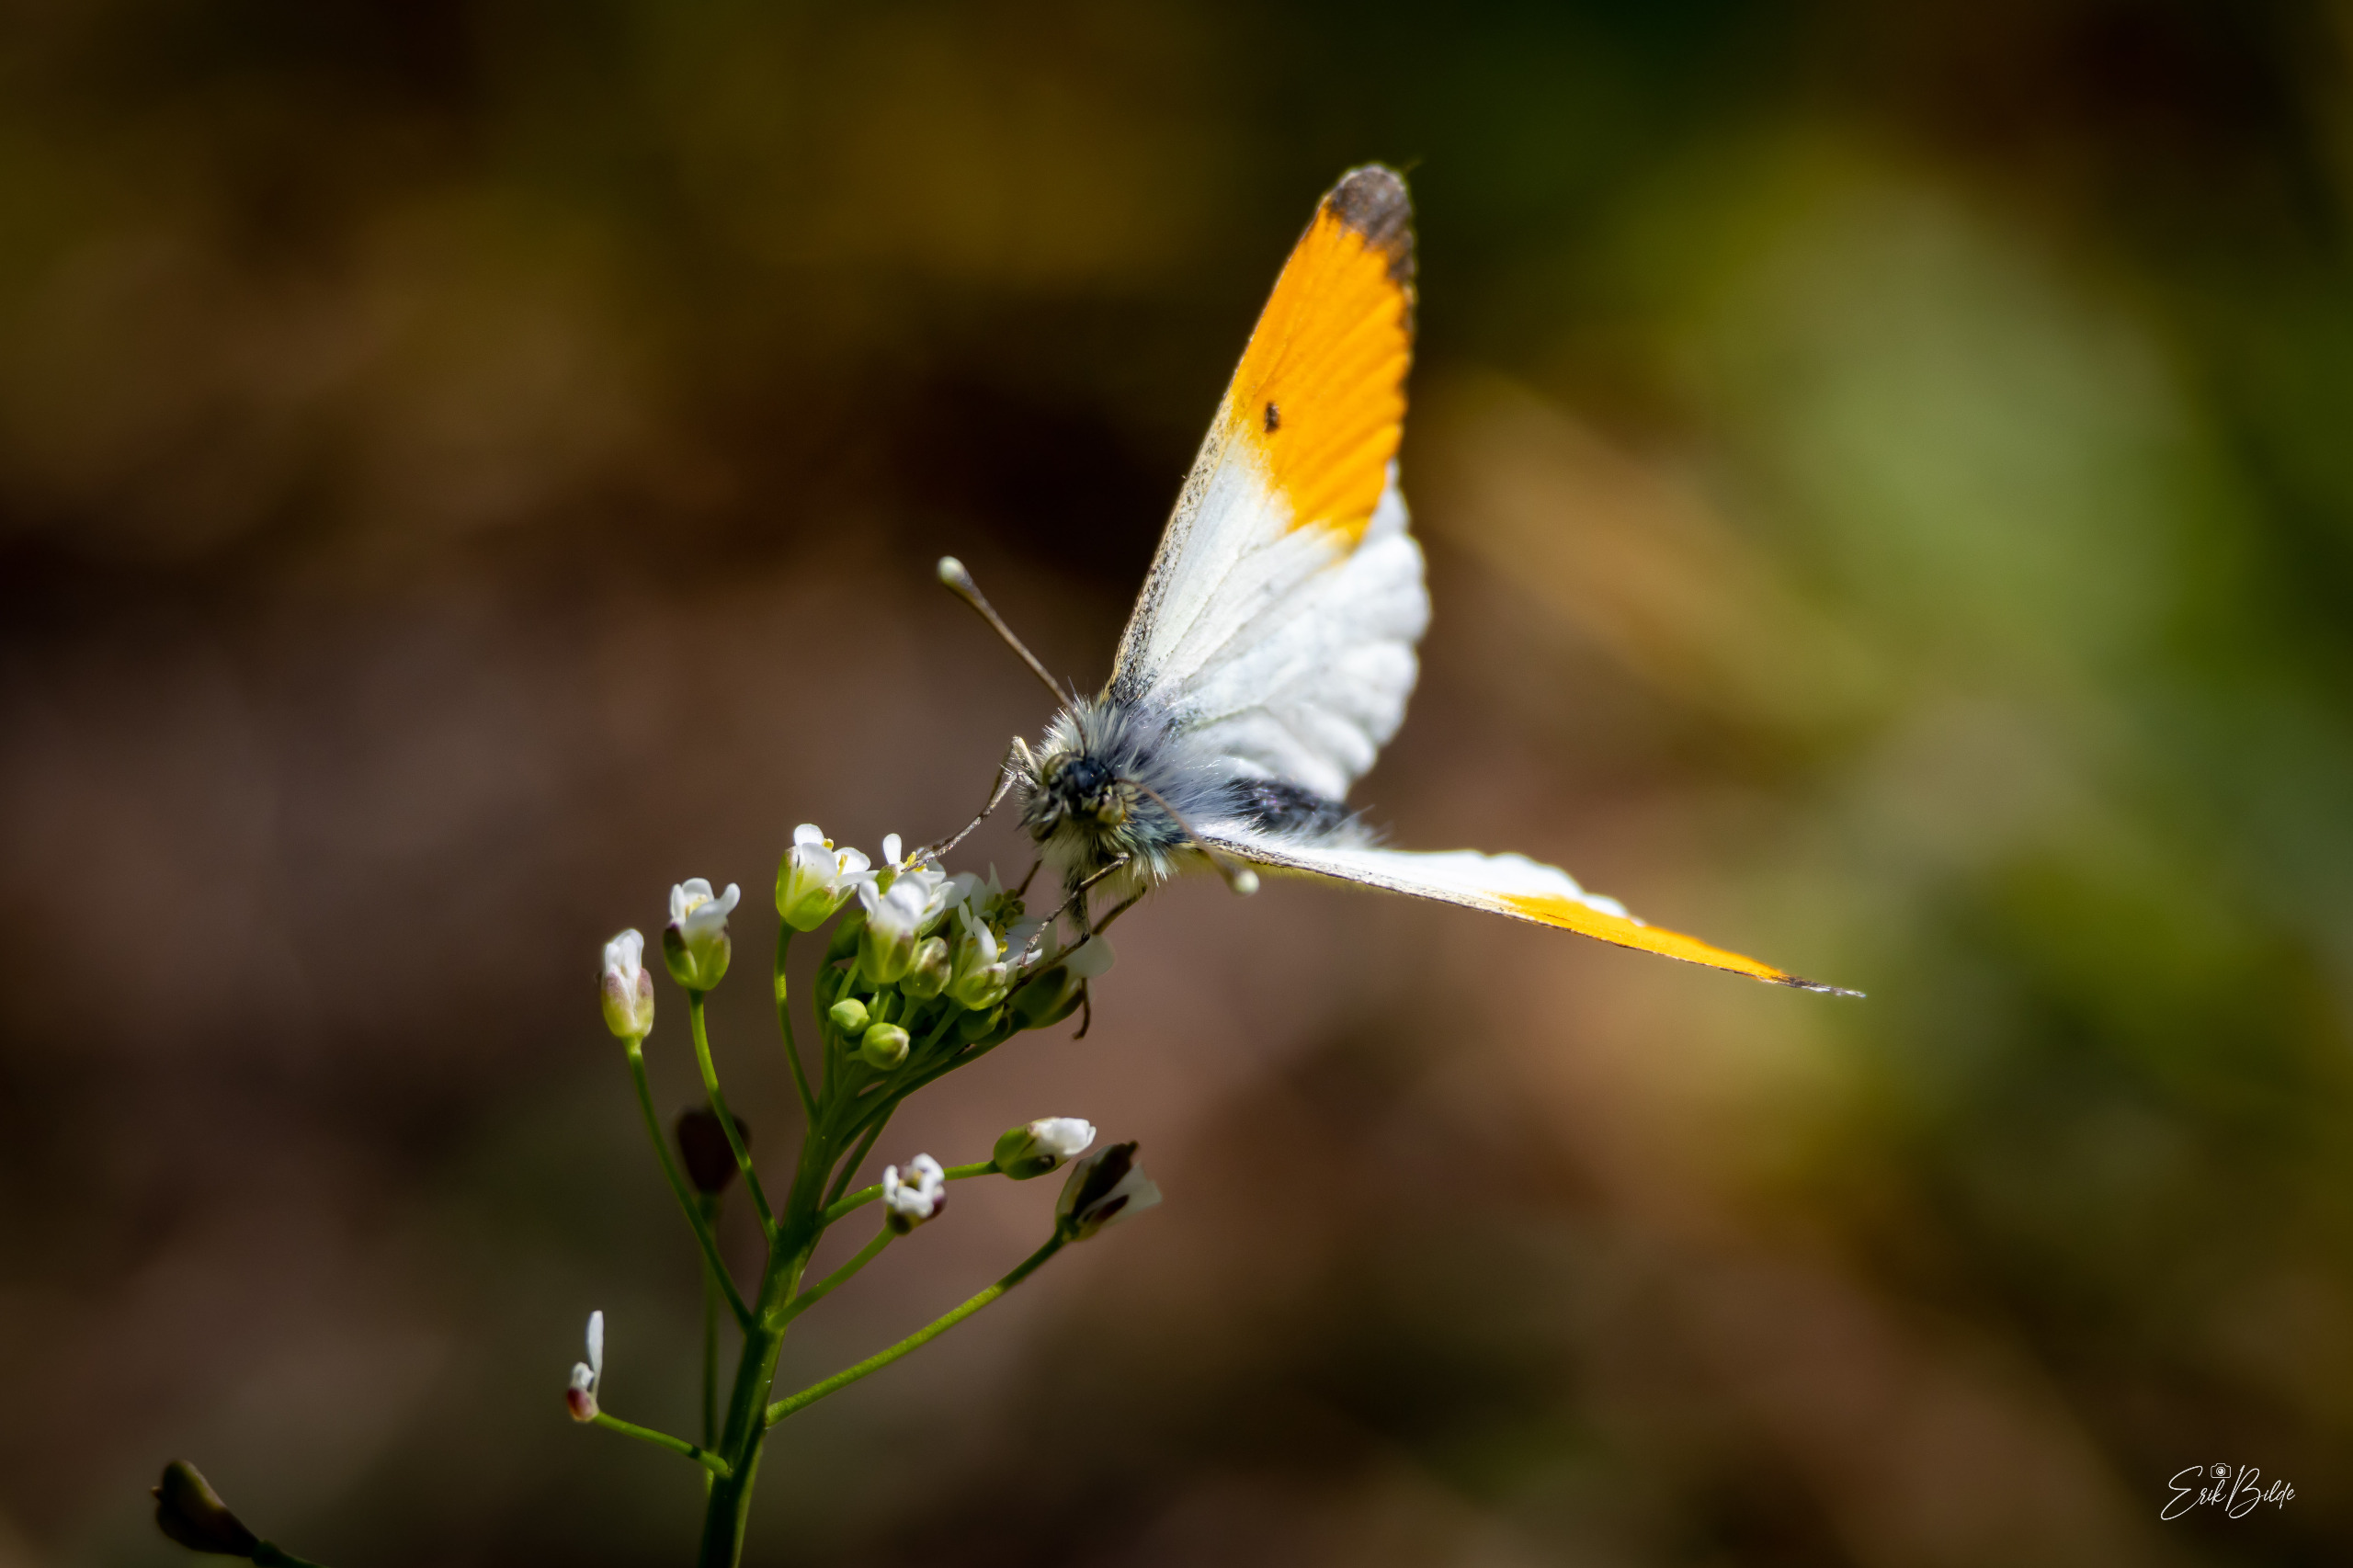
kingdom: Animalia
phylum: Arthropoda
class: Insecta
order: Lepidoptera
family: Pieridae
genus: Anthocharis
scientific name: Anthocharis cardamines
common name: Aurora
